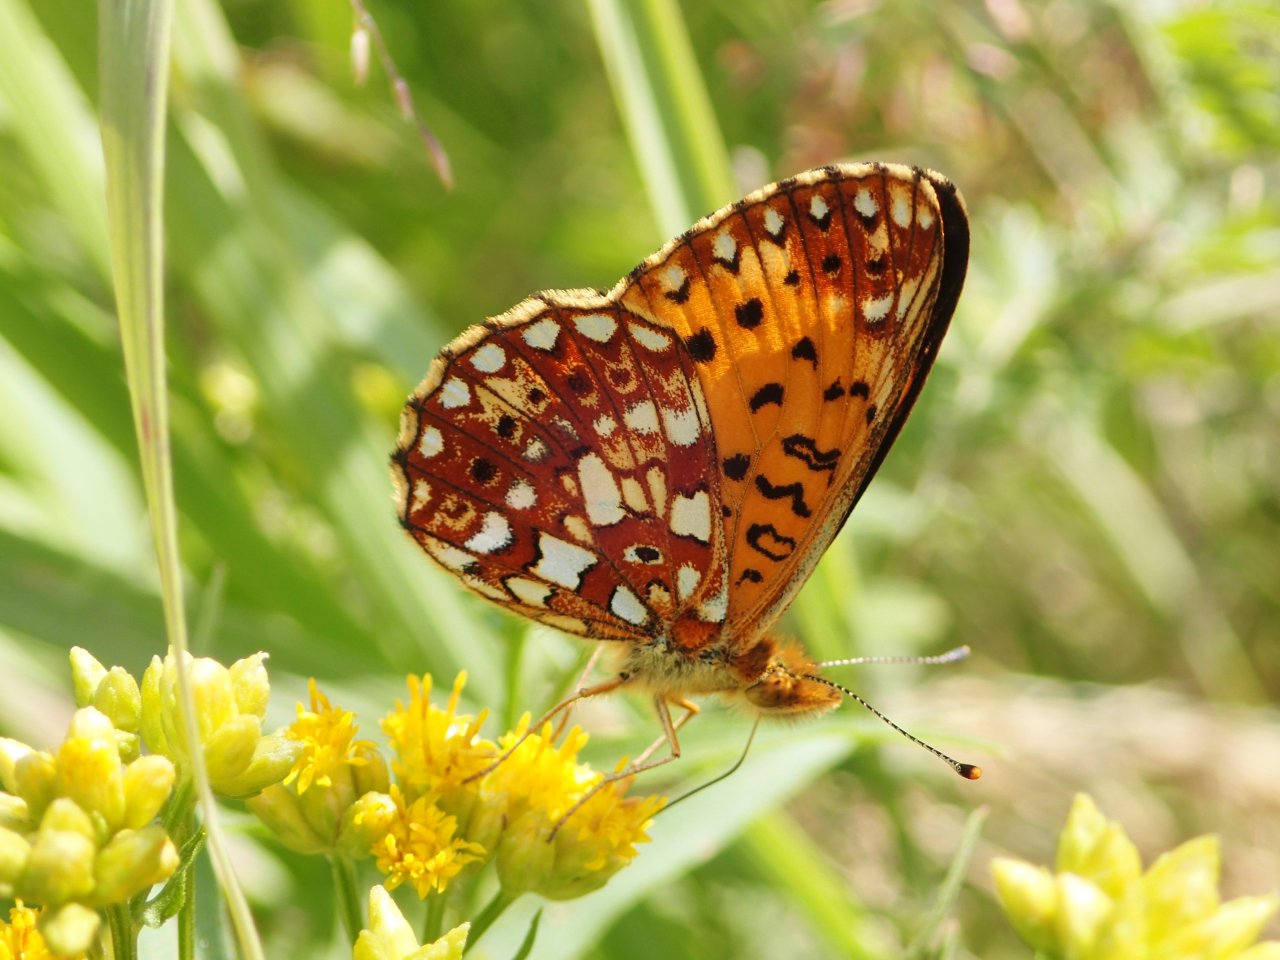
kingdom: Animalia
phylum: Arthropoda
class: Insecta
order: Lepidoptera
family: Nymphalidae
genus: Boloria
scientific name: Boloria selene
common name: Silver-bordered Fritillary
